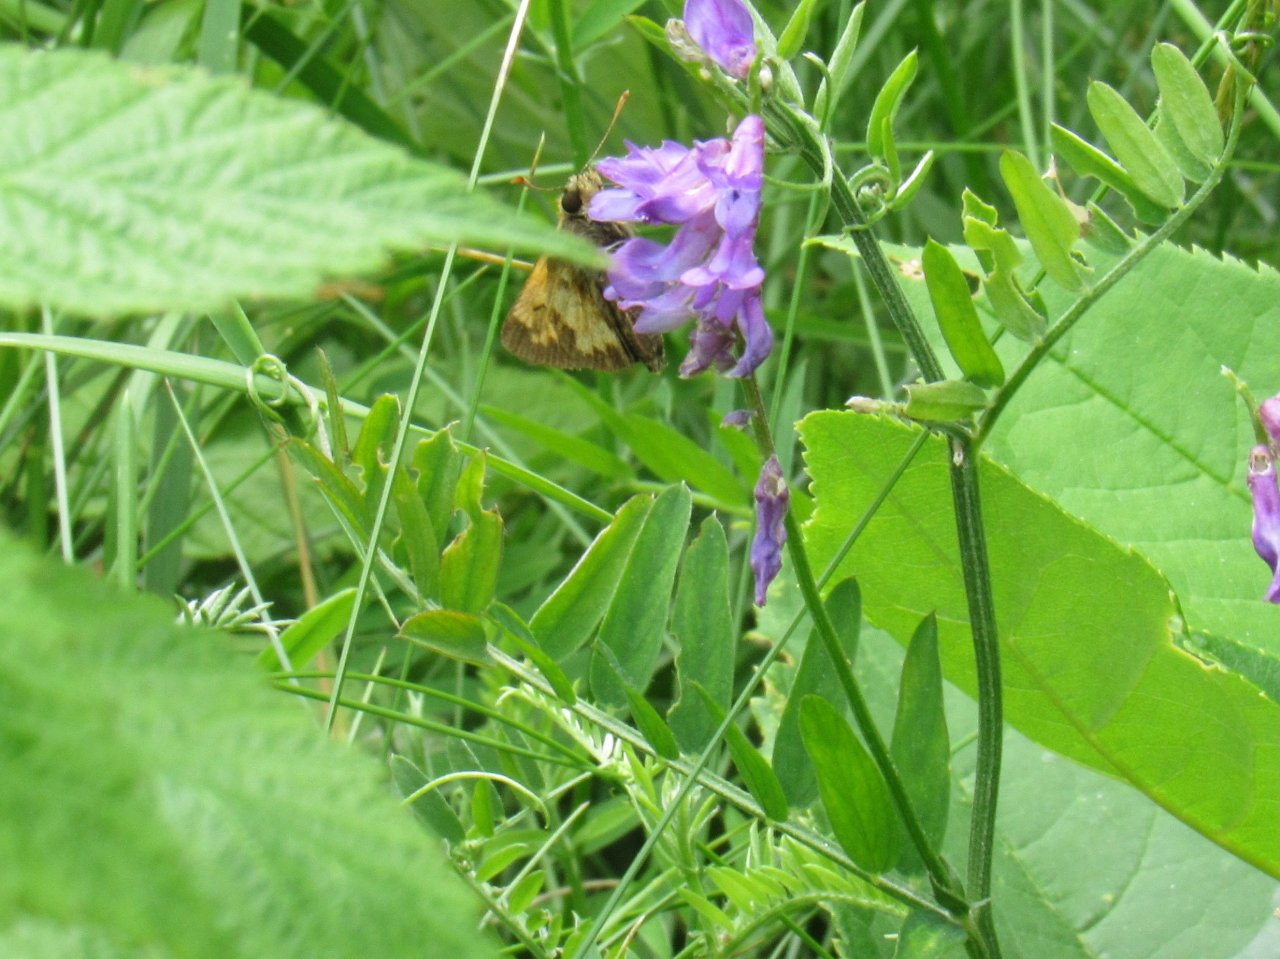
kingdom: Animalia
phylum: Arthropoda
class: Insecta
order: Lepidoptera
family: Hesperiidae
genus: Lon
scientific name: Lon hobomok
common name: Hobomok Skipper
